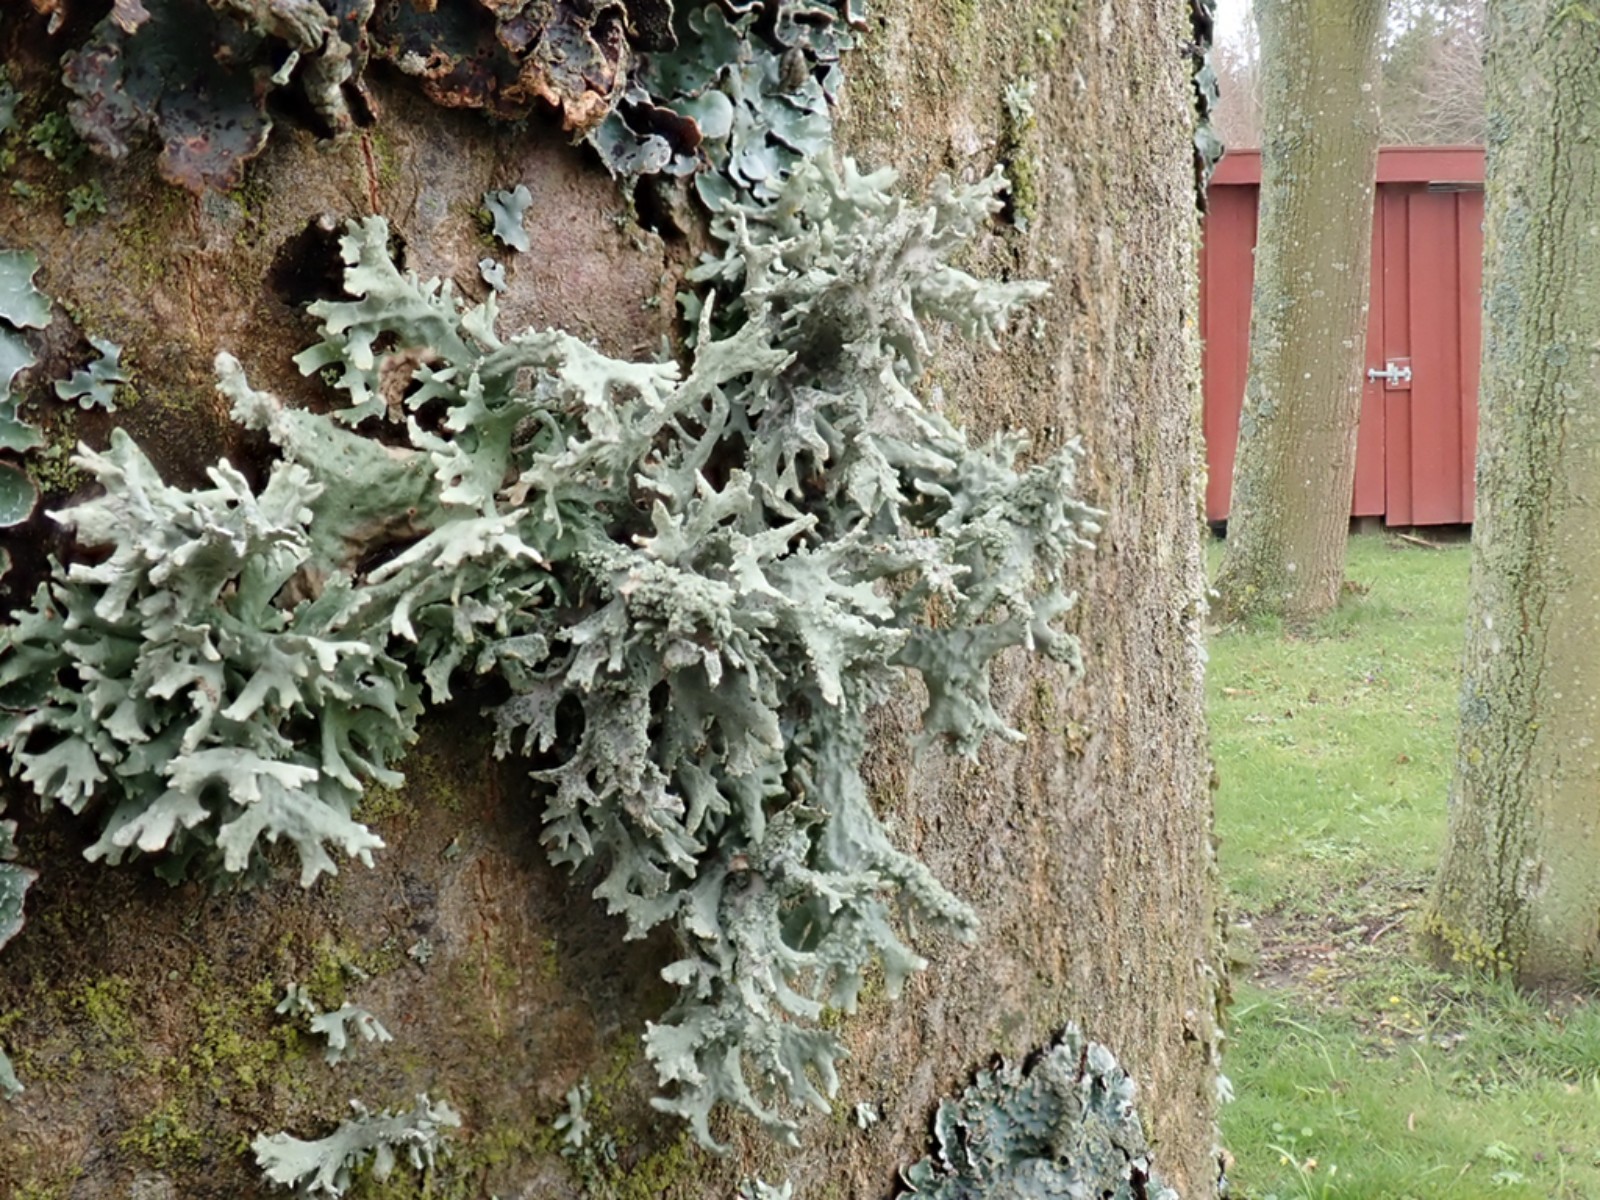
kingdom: Fungi
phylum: Ascomycota
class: Lecanoromycetes
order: Lecanorales
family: Parmeliaceae
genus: Evernia
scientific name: Evernia prunastri
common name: almindelig slåenlav
